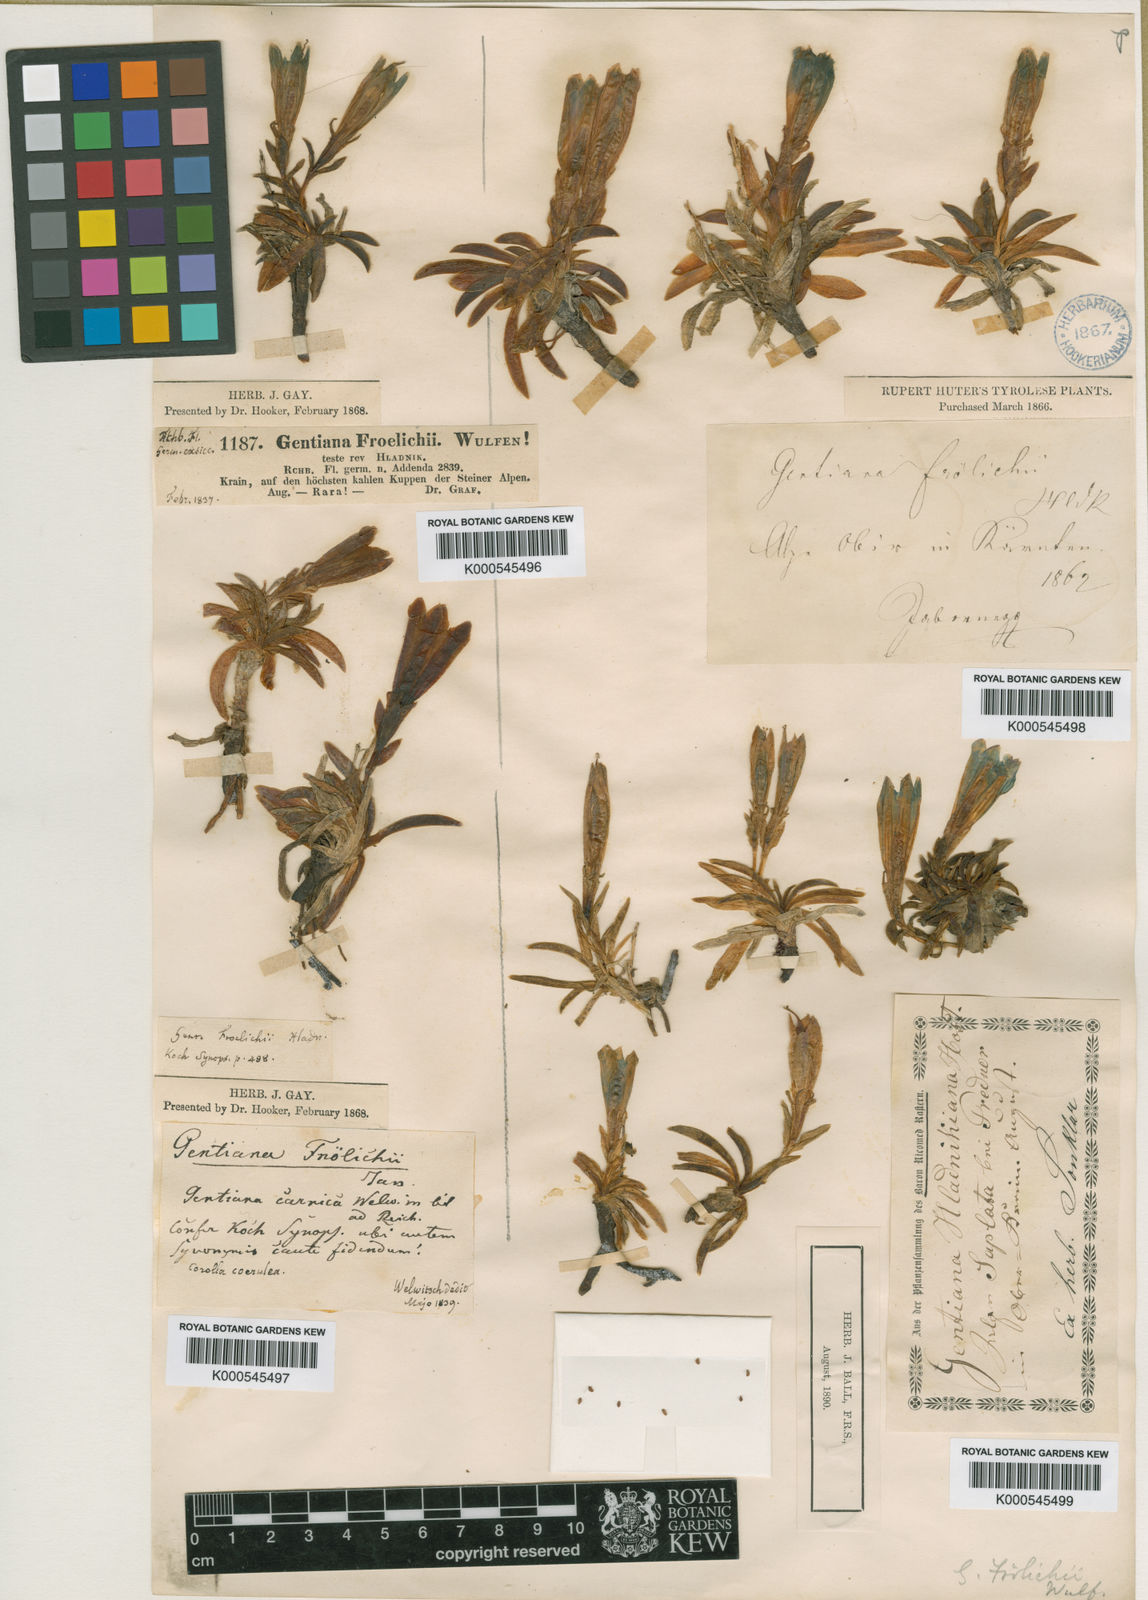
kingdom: Plantae
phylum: Tracheophyta
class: Magnoliopsida
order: Gentianales
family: Gentianaceae
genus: Gentiana
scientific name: Gentiana froelichii
